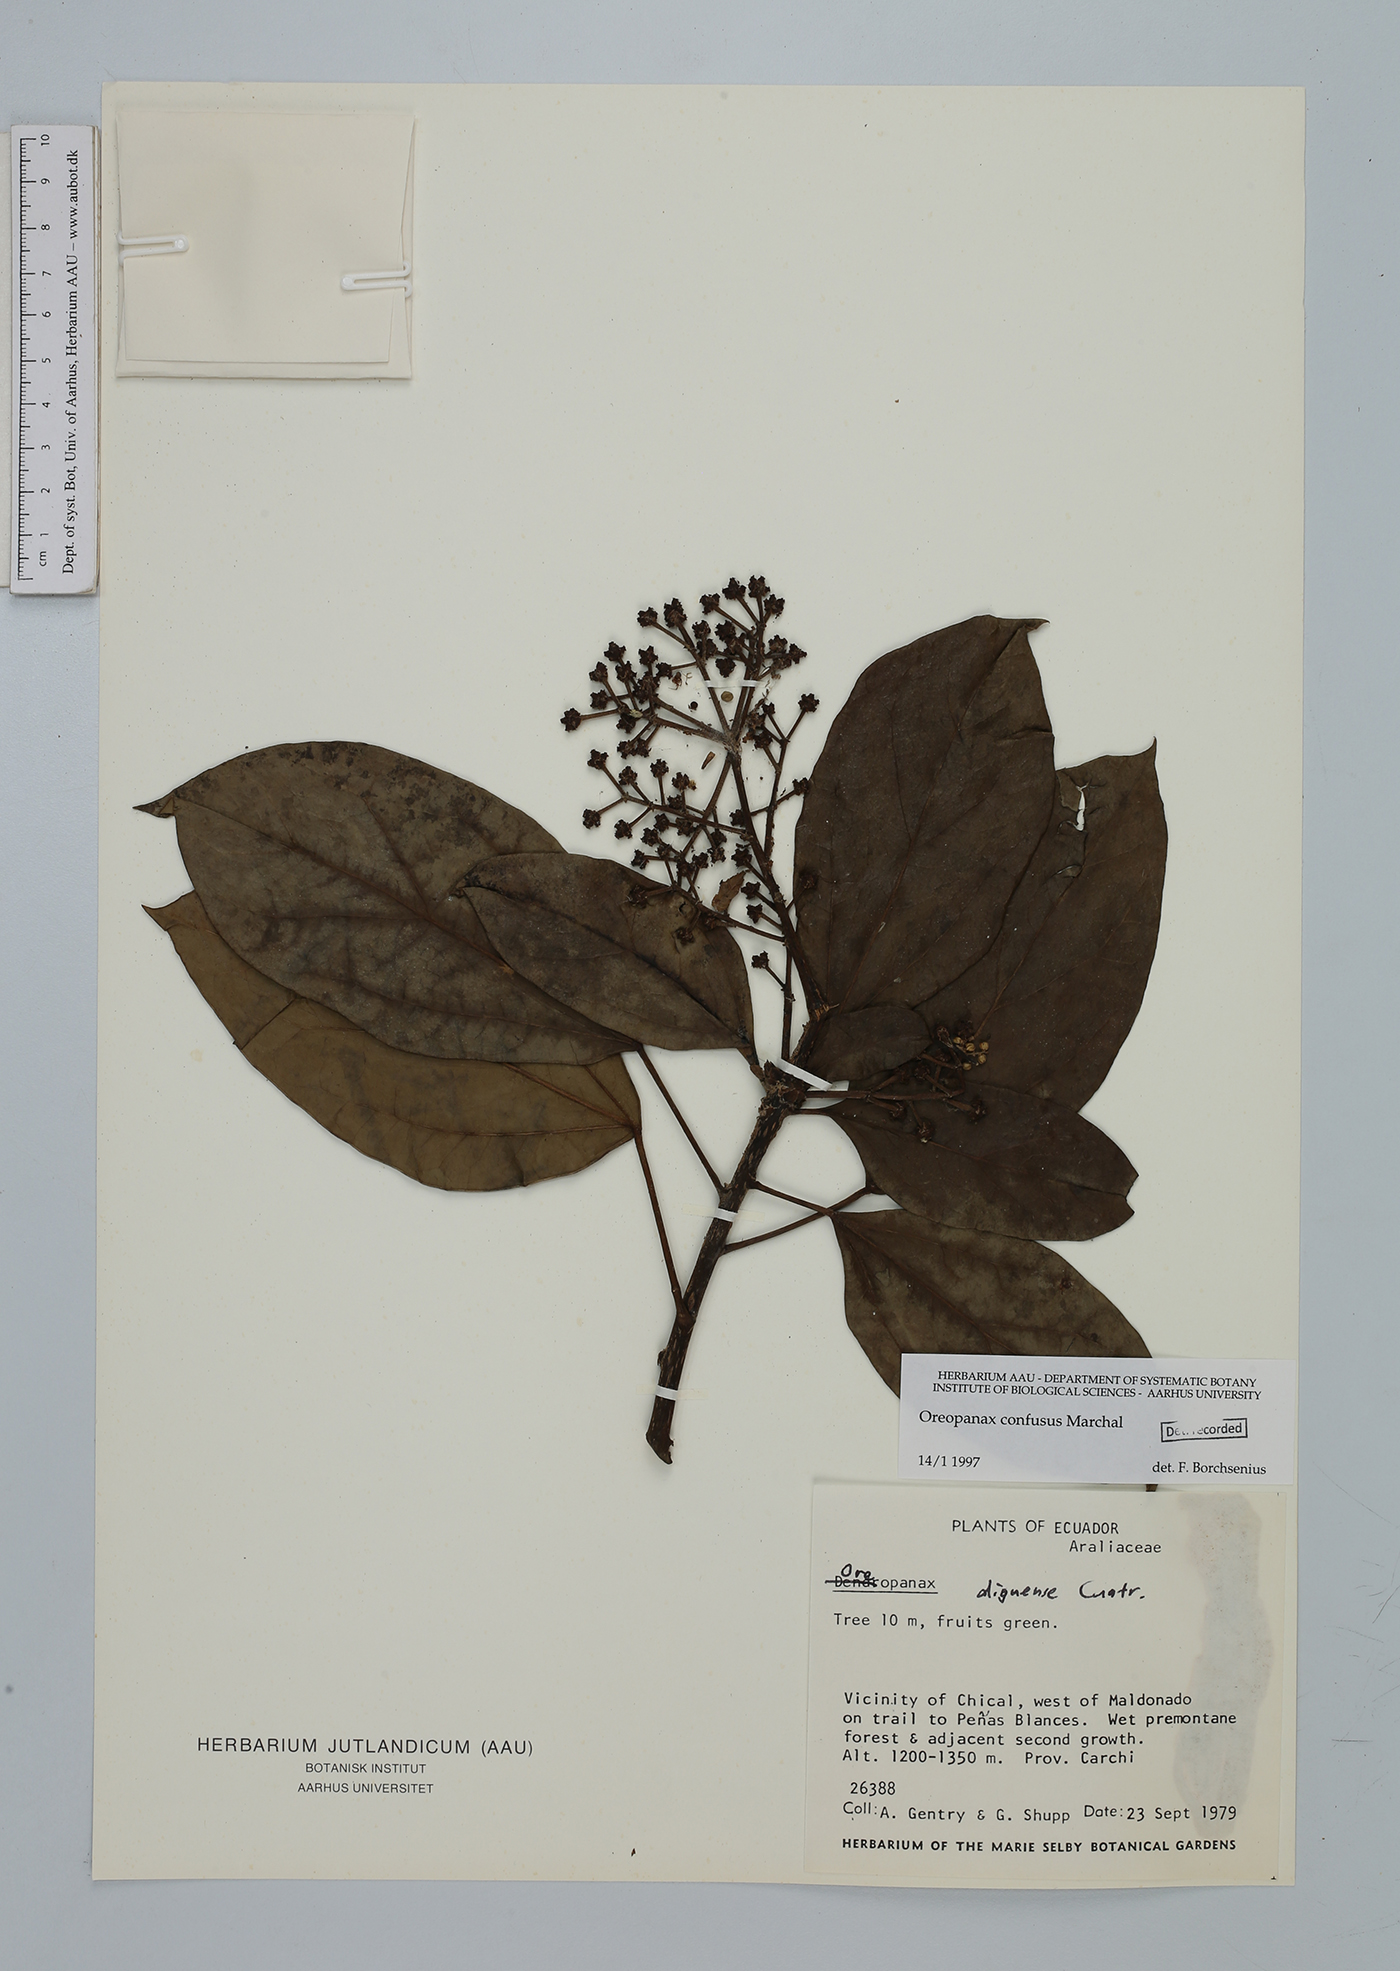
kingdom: Plantae
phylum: Tracheophyta
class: Magnoliopsida
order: Apiales
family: Araliaceae
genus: Oreopanax
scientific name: Oreopanax confusus
